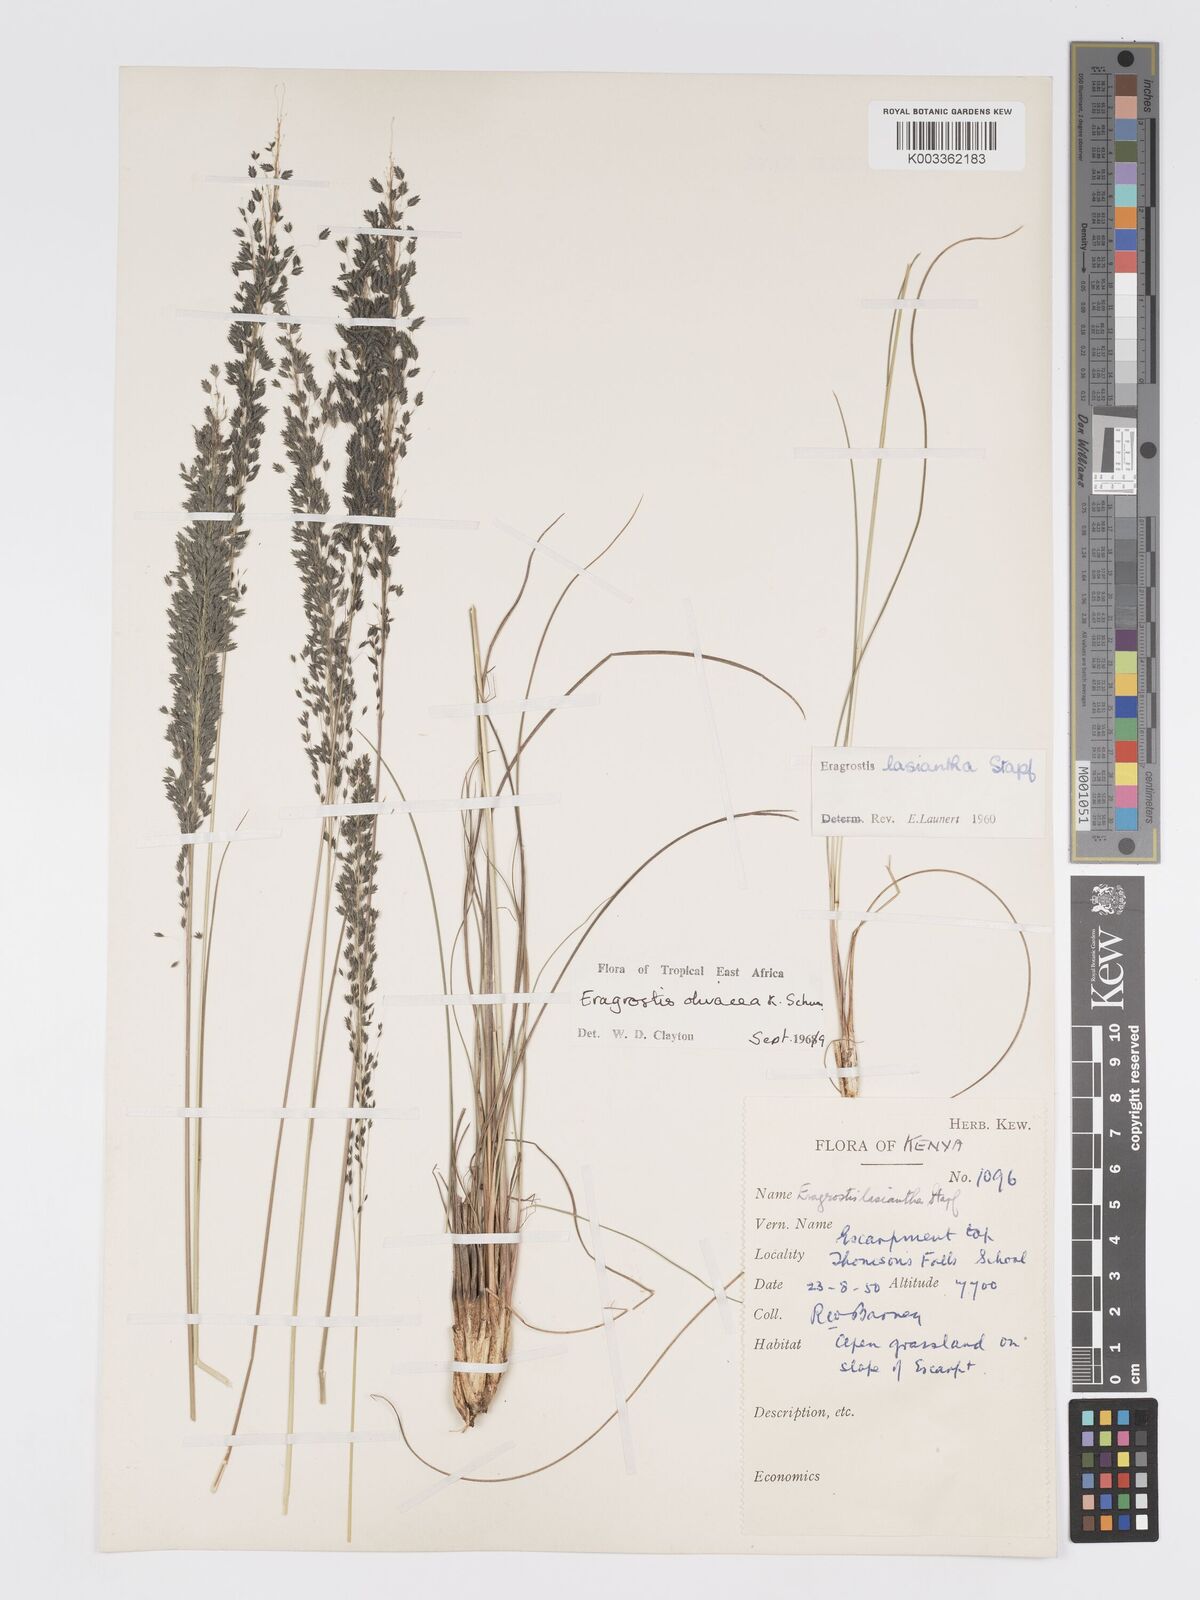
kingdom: Plantae
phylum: Tracheophyta
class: Liliopsida
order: Poales
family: Poaceae
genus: Eragrostis
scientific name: Eragrostis olivacea
